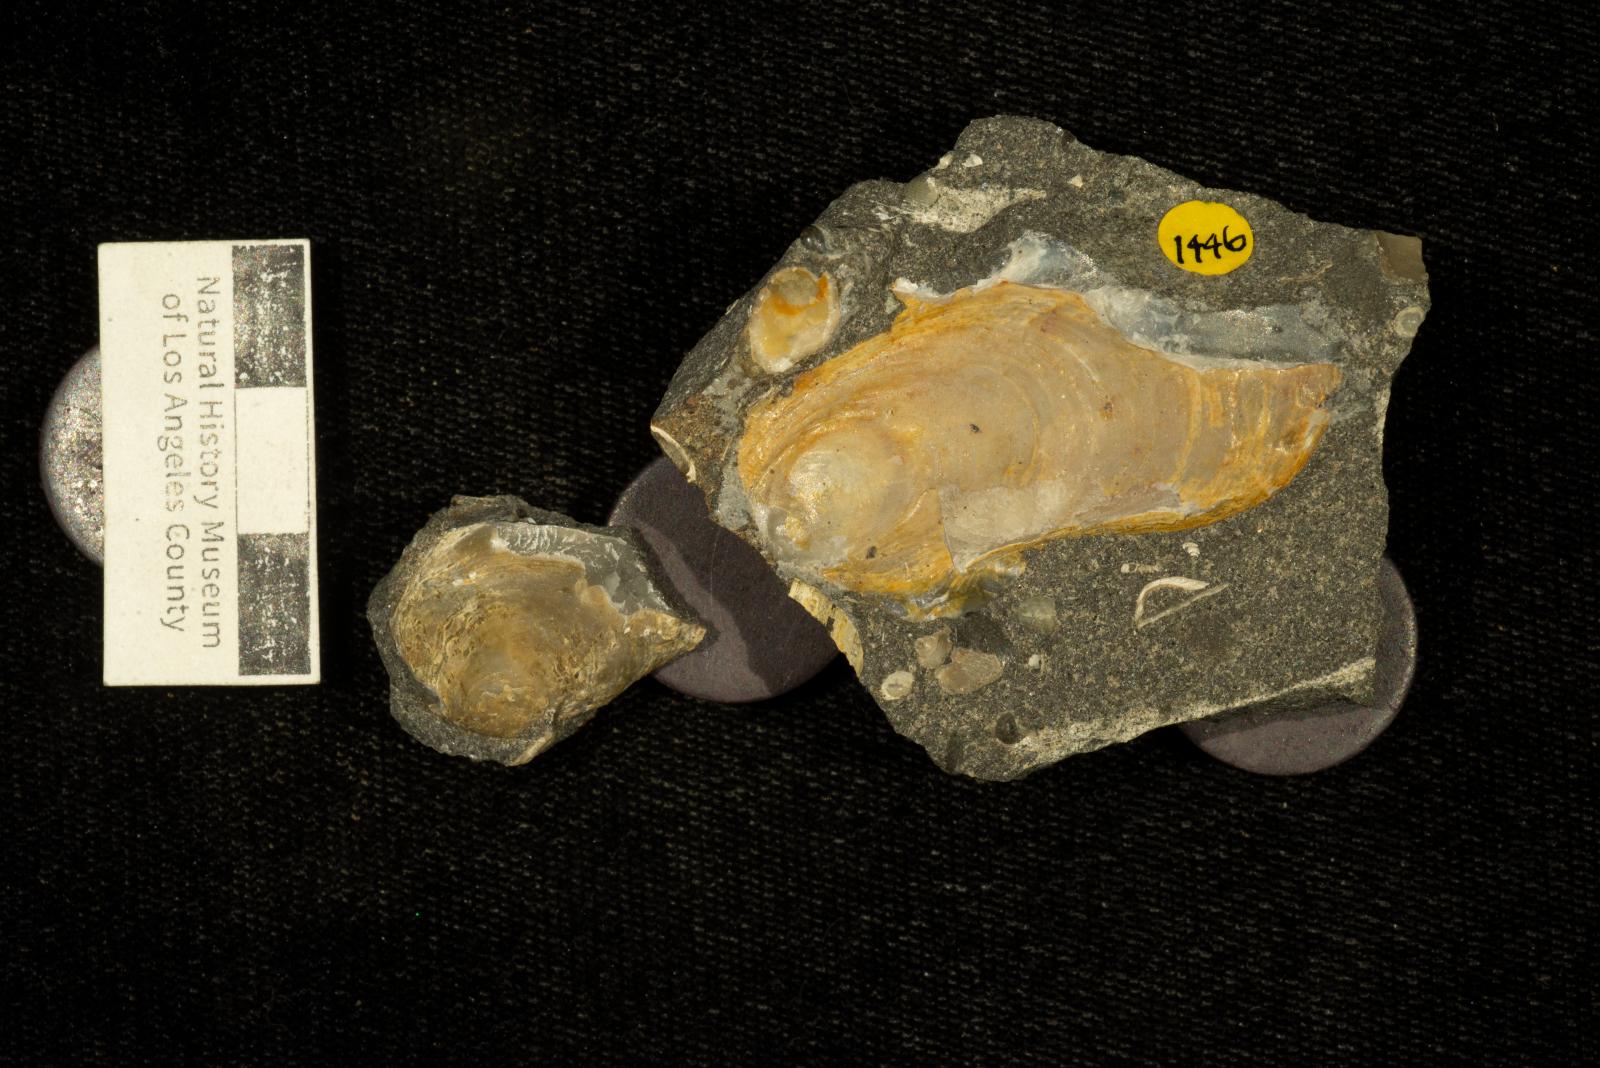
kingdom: Animalia
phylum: Mollusca
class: Bivalvia
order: Ostreida
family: Gryphaeidae
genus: Pycnodonte
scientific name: Pycnodonte
